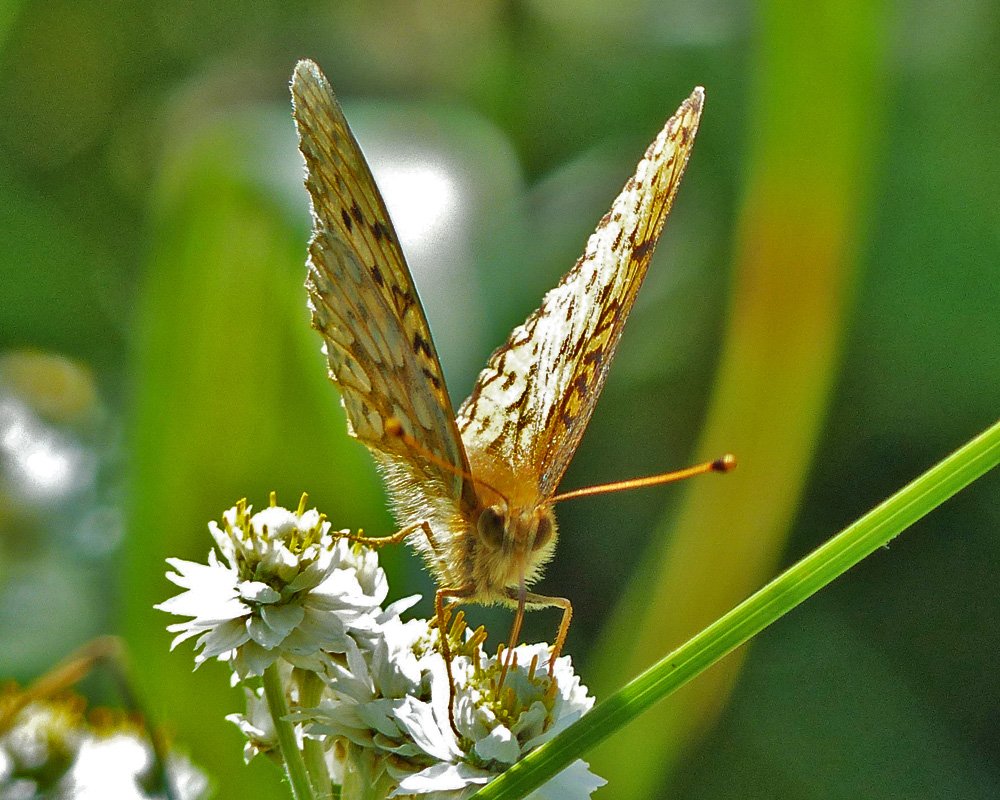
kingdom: Animalia
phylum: Arthropoda
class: Insecta
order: Lepidoptera
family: Nymphalidae
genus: Speyeria
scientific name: Speyeria mormonia
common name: Mormon Fritillary
